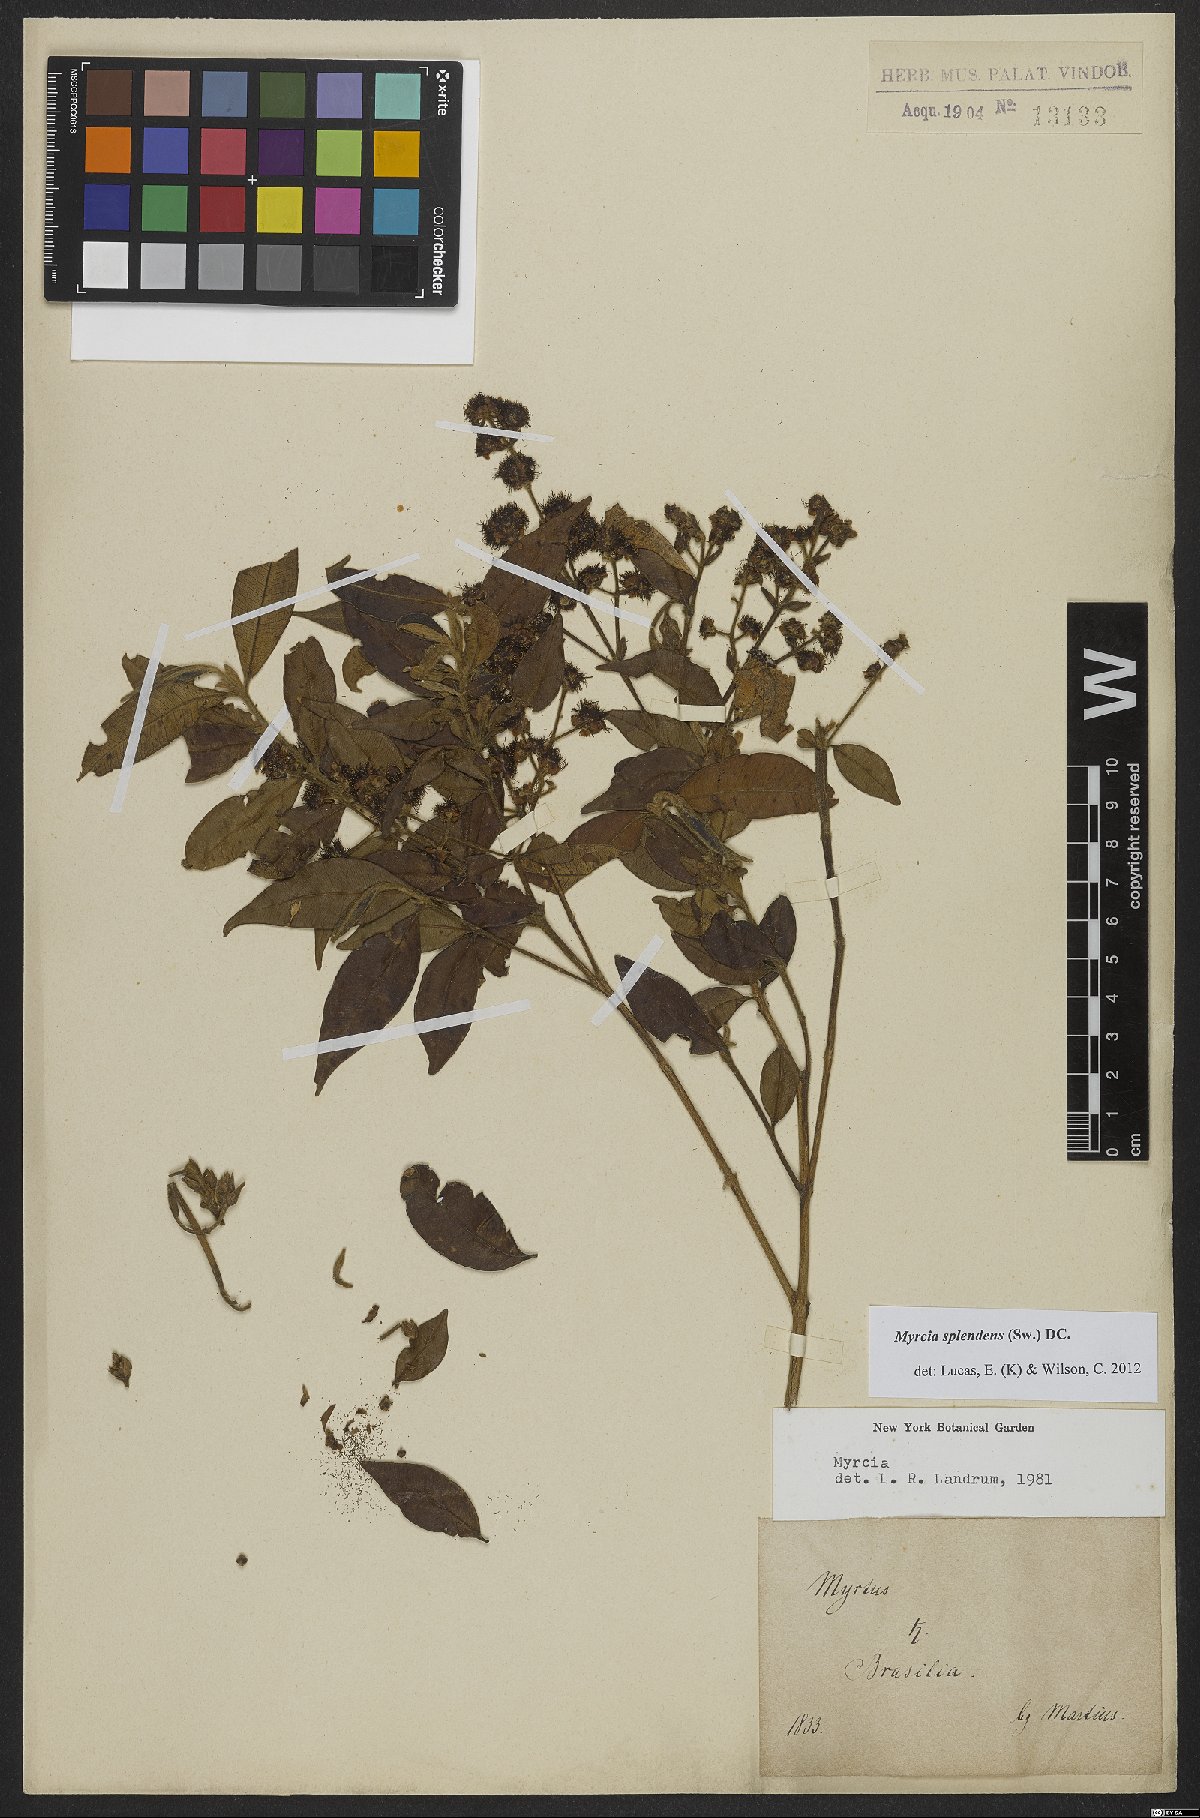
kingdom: Plantae
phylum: Tracheophyta
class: Magnoliopsida
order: Myrtales
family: Myrtaceae
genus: Myrcia
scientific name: Myrcia splendens
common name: Surinam cherry
